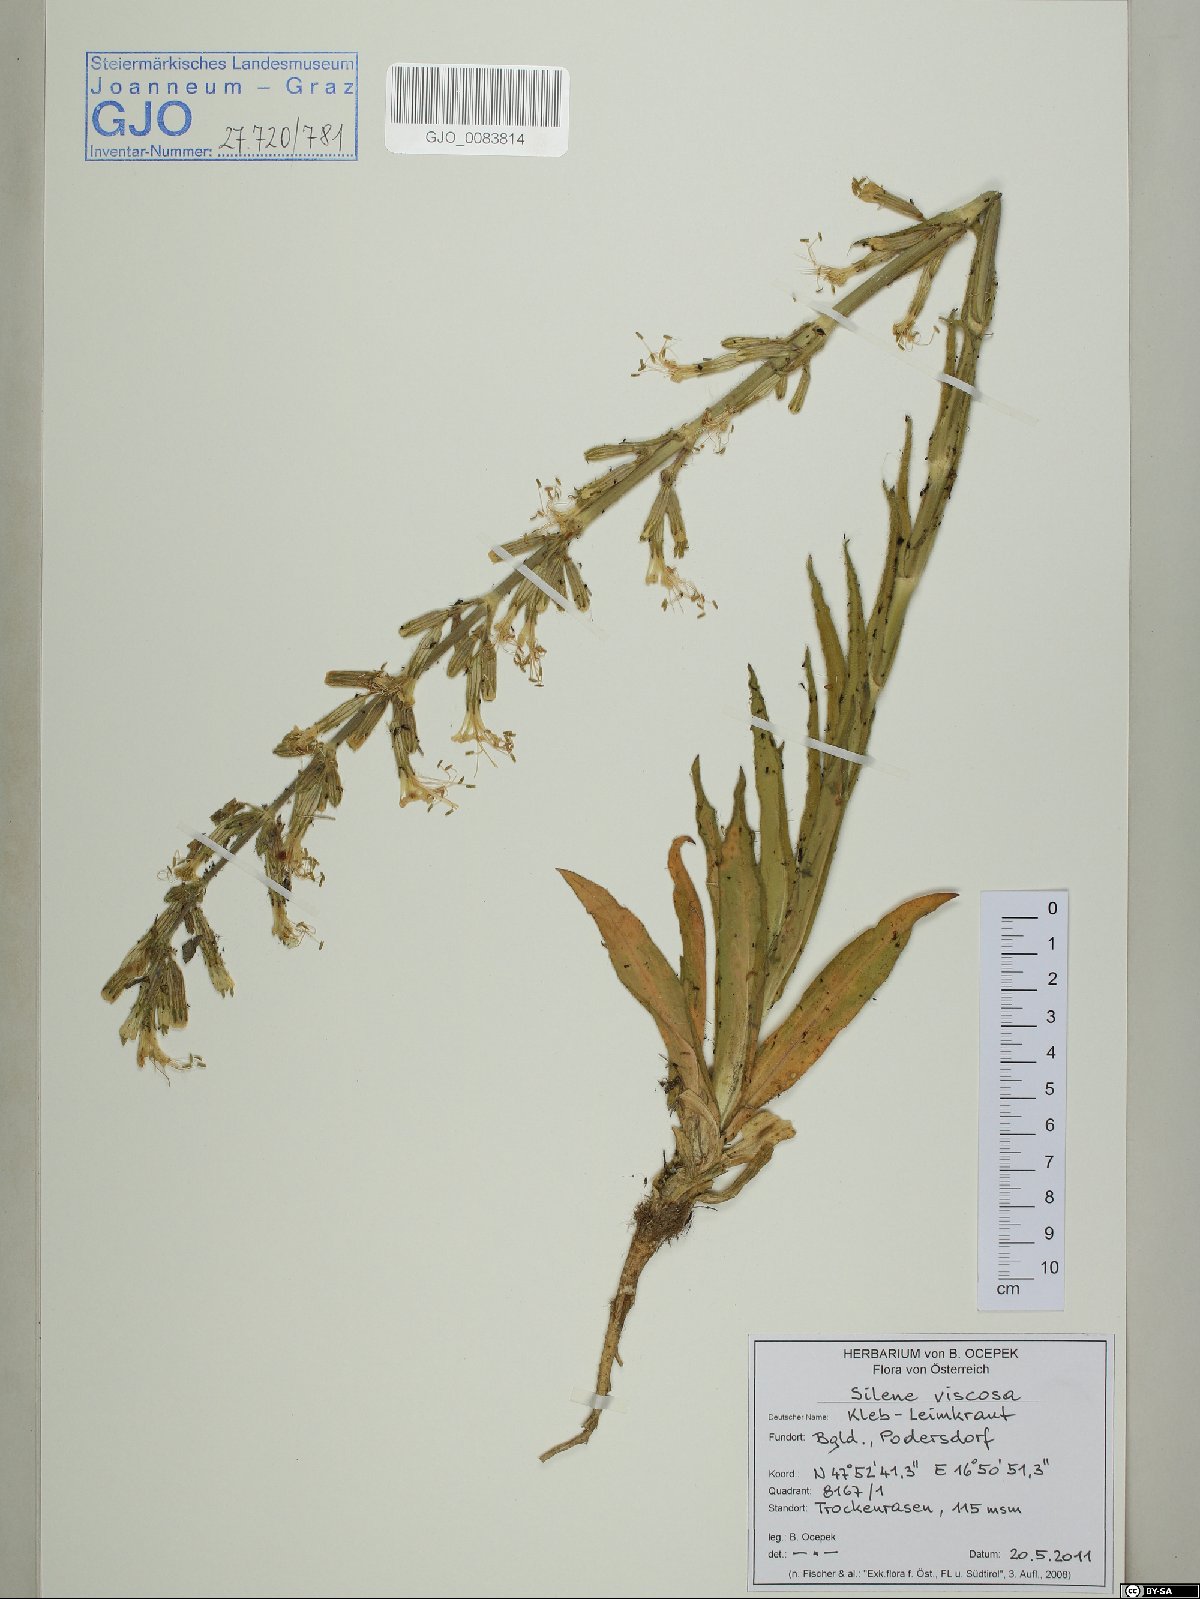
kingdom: Plantae
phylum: Tracheophyta
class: Magnoliopsida
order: Caryophyllales
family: Caryophyllaceae
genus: Silene
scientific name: Silene viscosa
